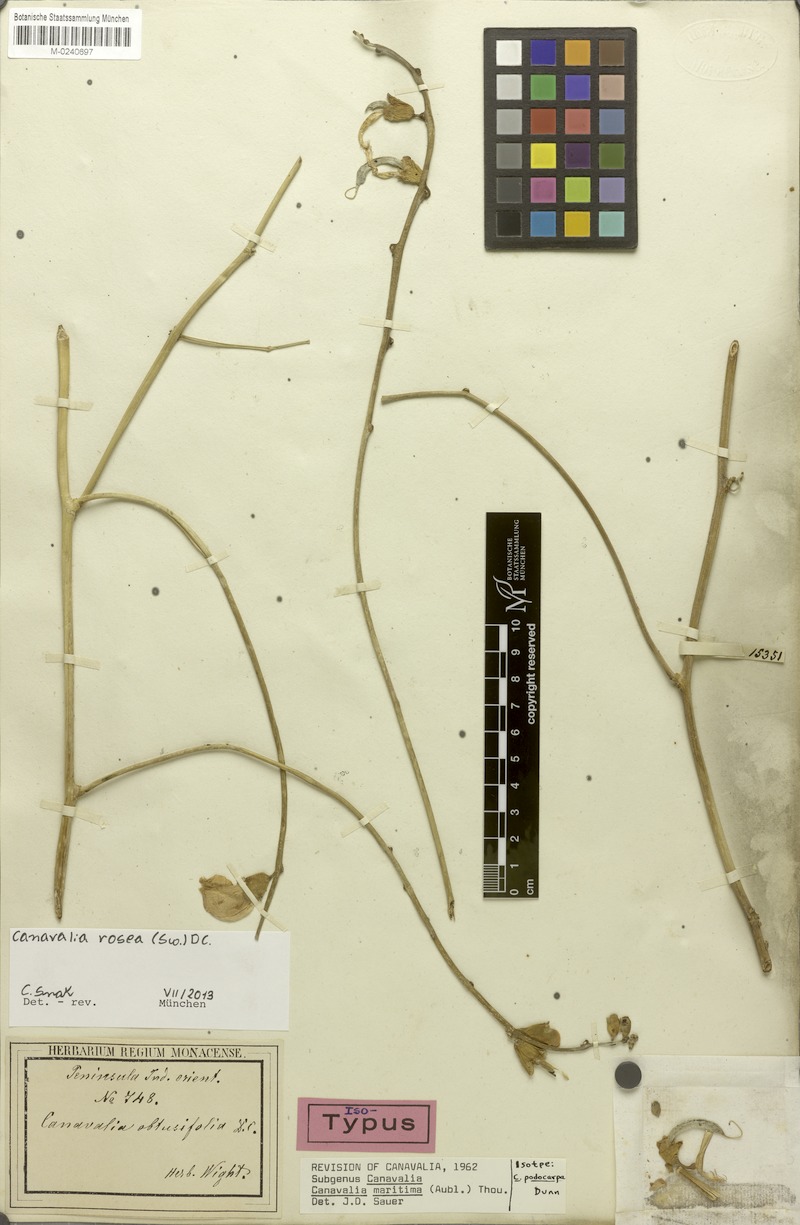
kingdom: Plantae
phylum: Tracheophyta
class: Magnoliopsida
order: Fabales
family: Fabaceae
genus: Canavalia
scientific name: Canavalia rosea
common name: Beach-bean
